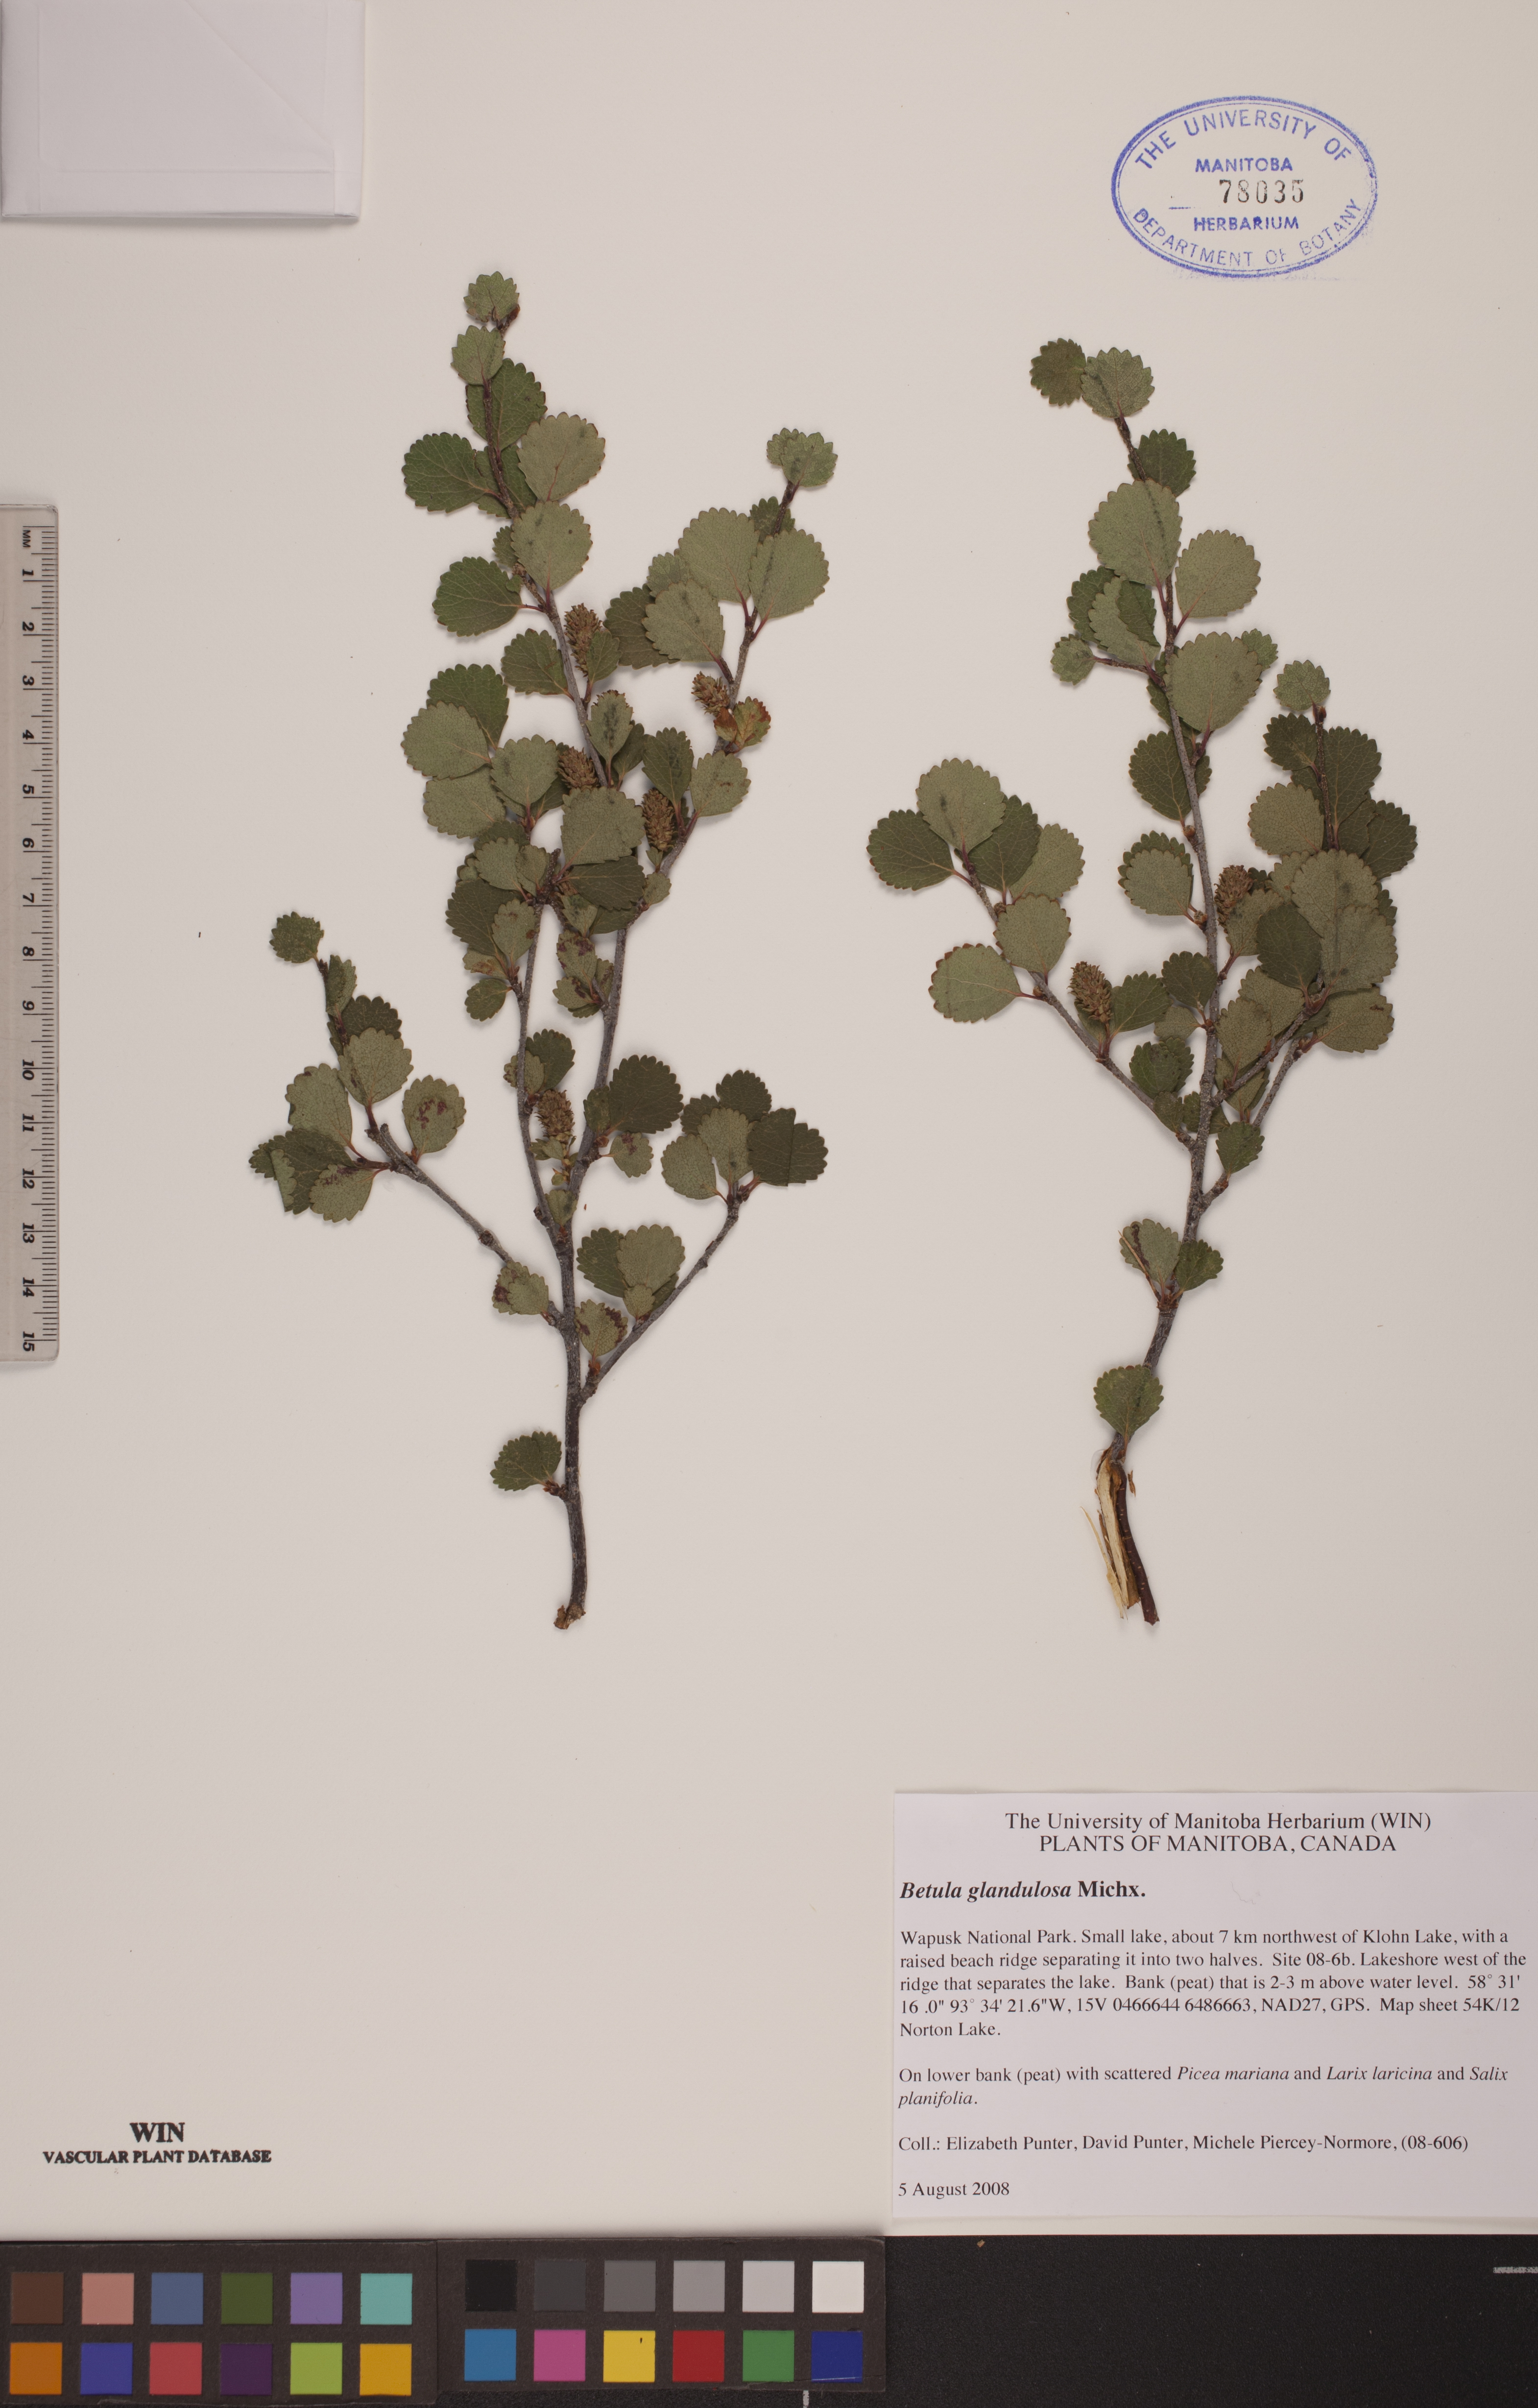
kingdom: Plantae
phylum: Tracheophyta
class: Magnoliopsida
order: Fagales
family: Betulaceae
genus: Betula
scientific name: Betula glandulosa
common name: Dwarf birch
